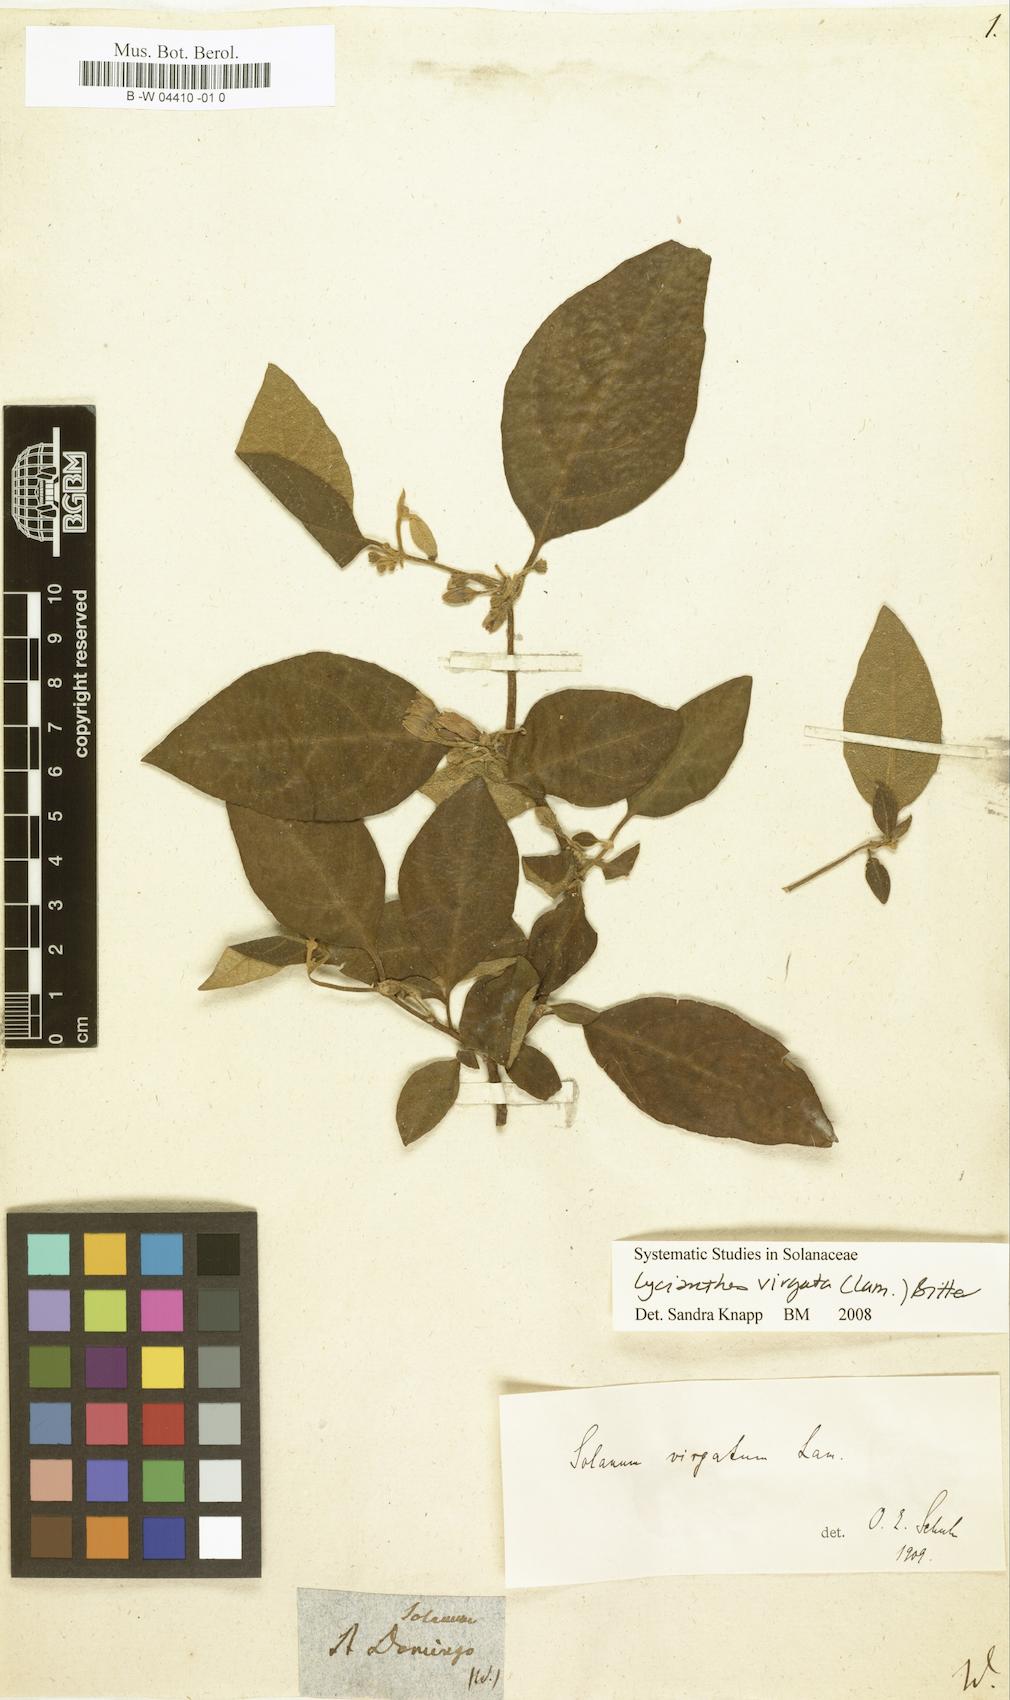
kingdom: Plantae
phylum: Tracheophyta
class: Magnoliopsida
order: Solanales
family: Solanaceae
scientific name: Solanaceae
